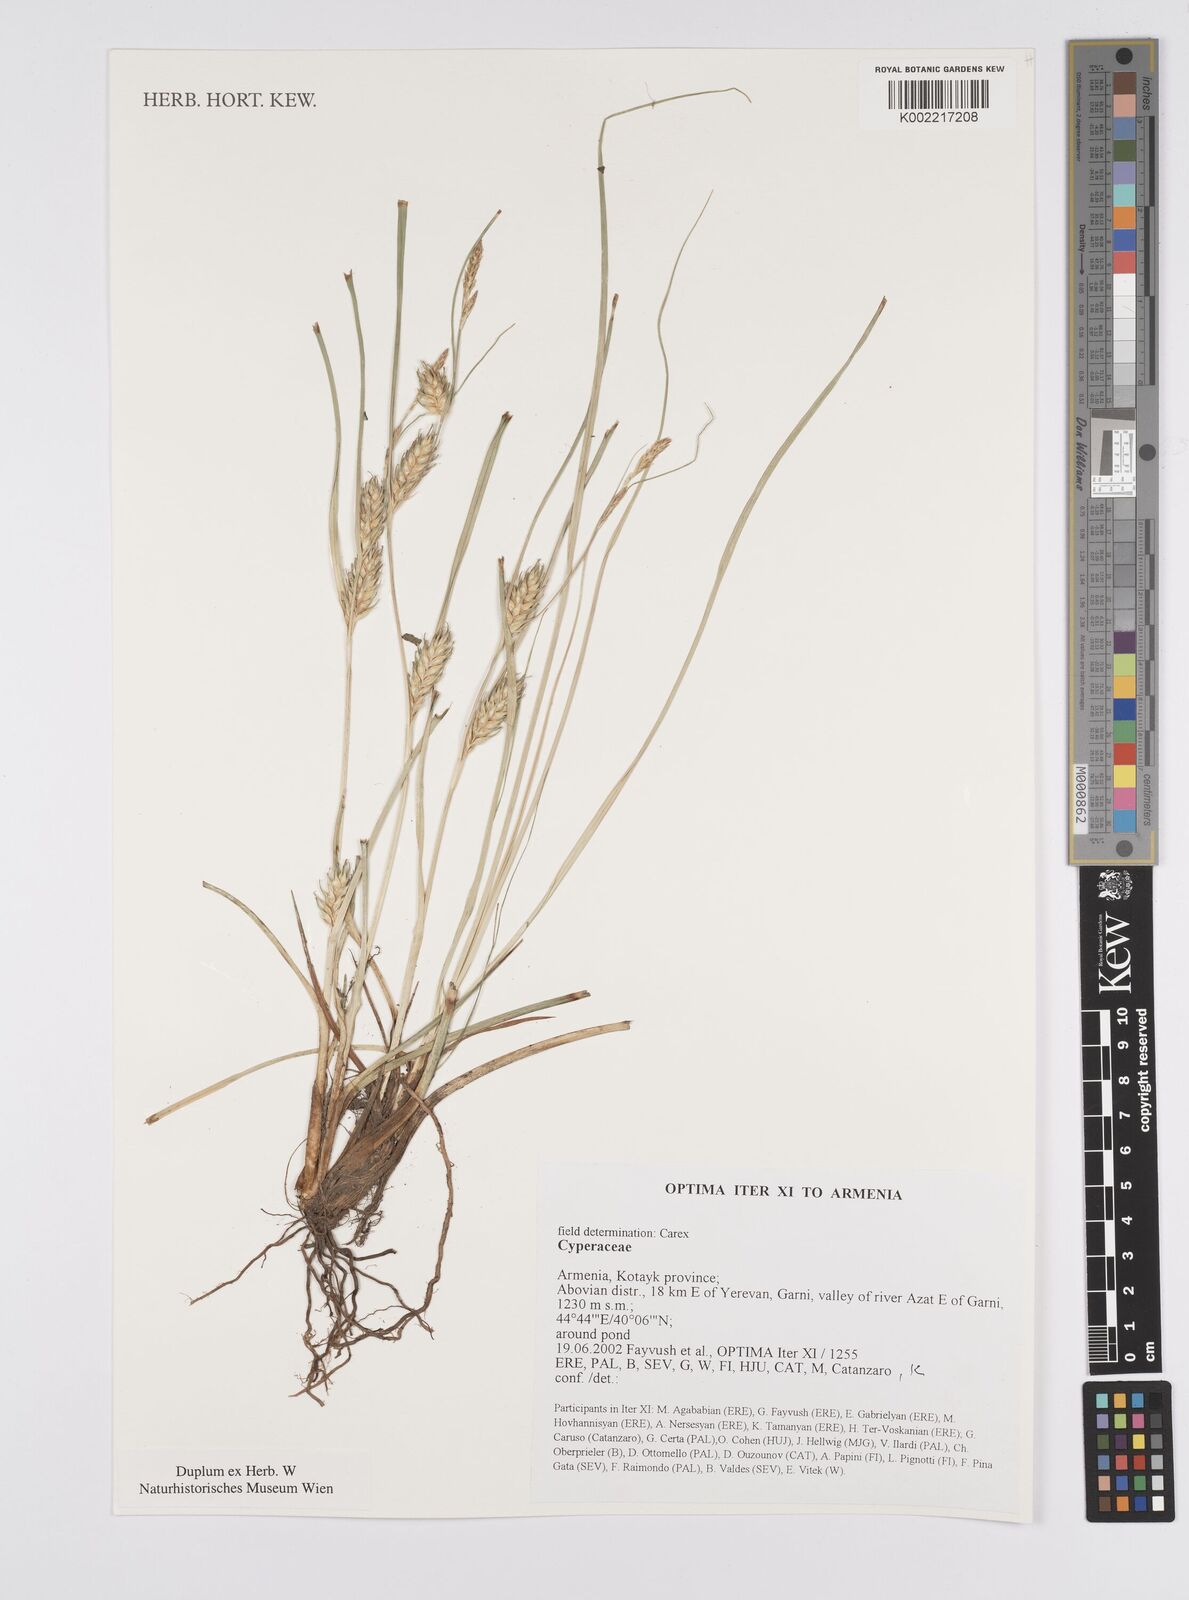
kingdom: Plantae
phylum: Tracheophyta
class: Liliopsida
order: Poales
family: Cyperaceae
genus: Carex
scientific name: Carex
